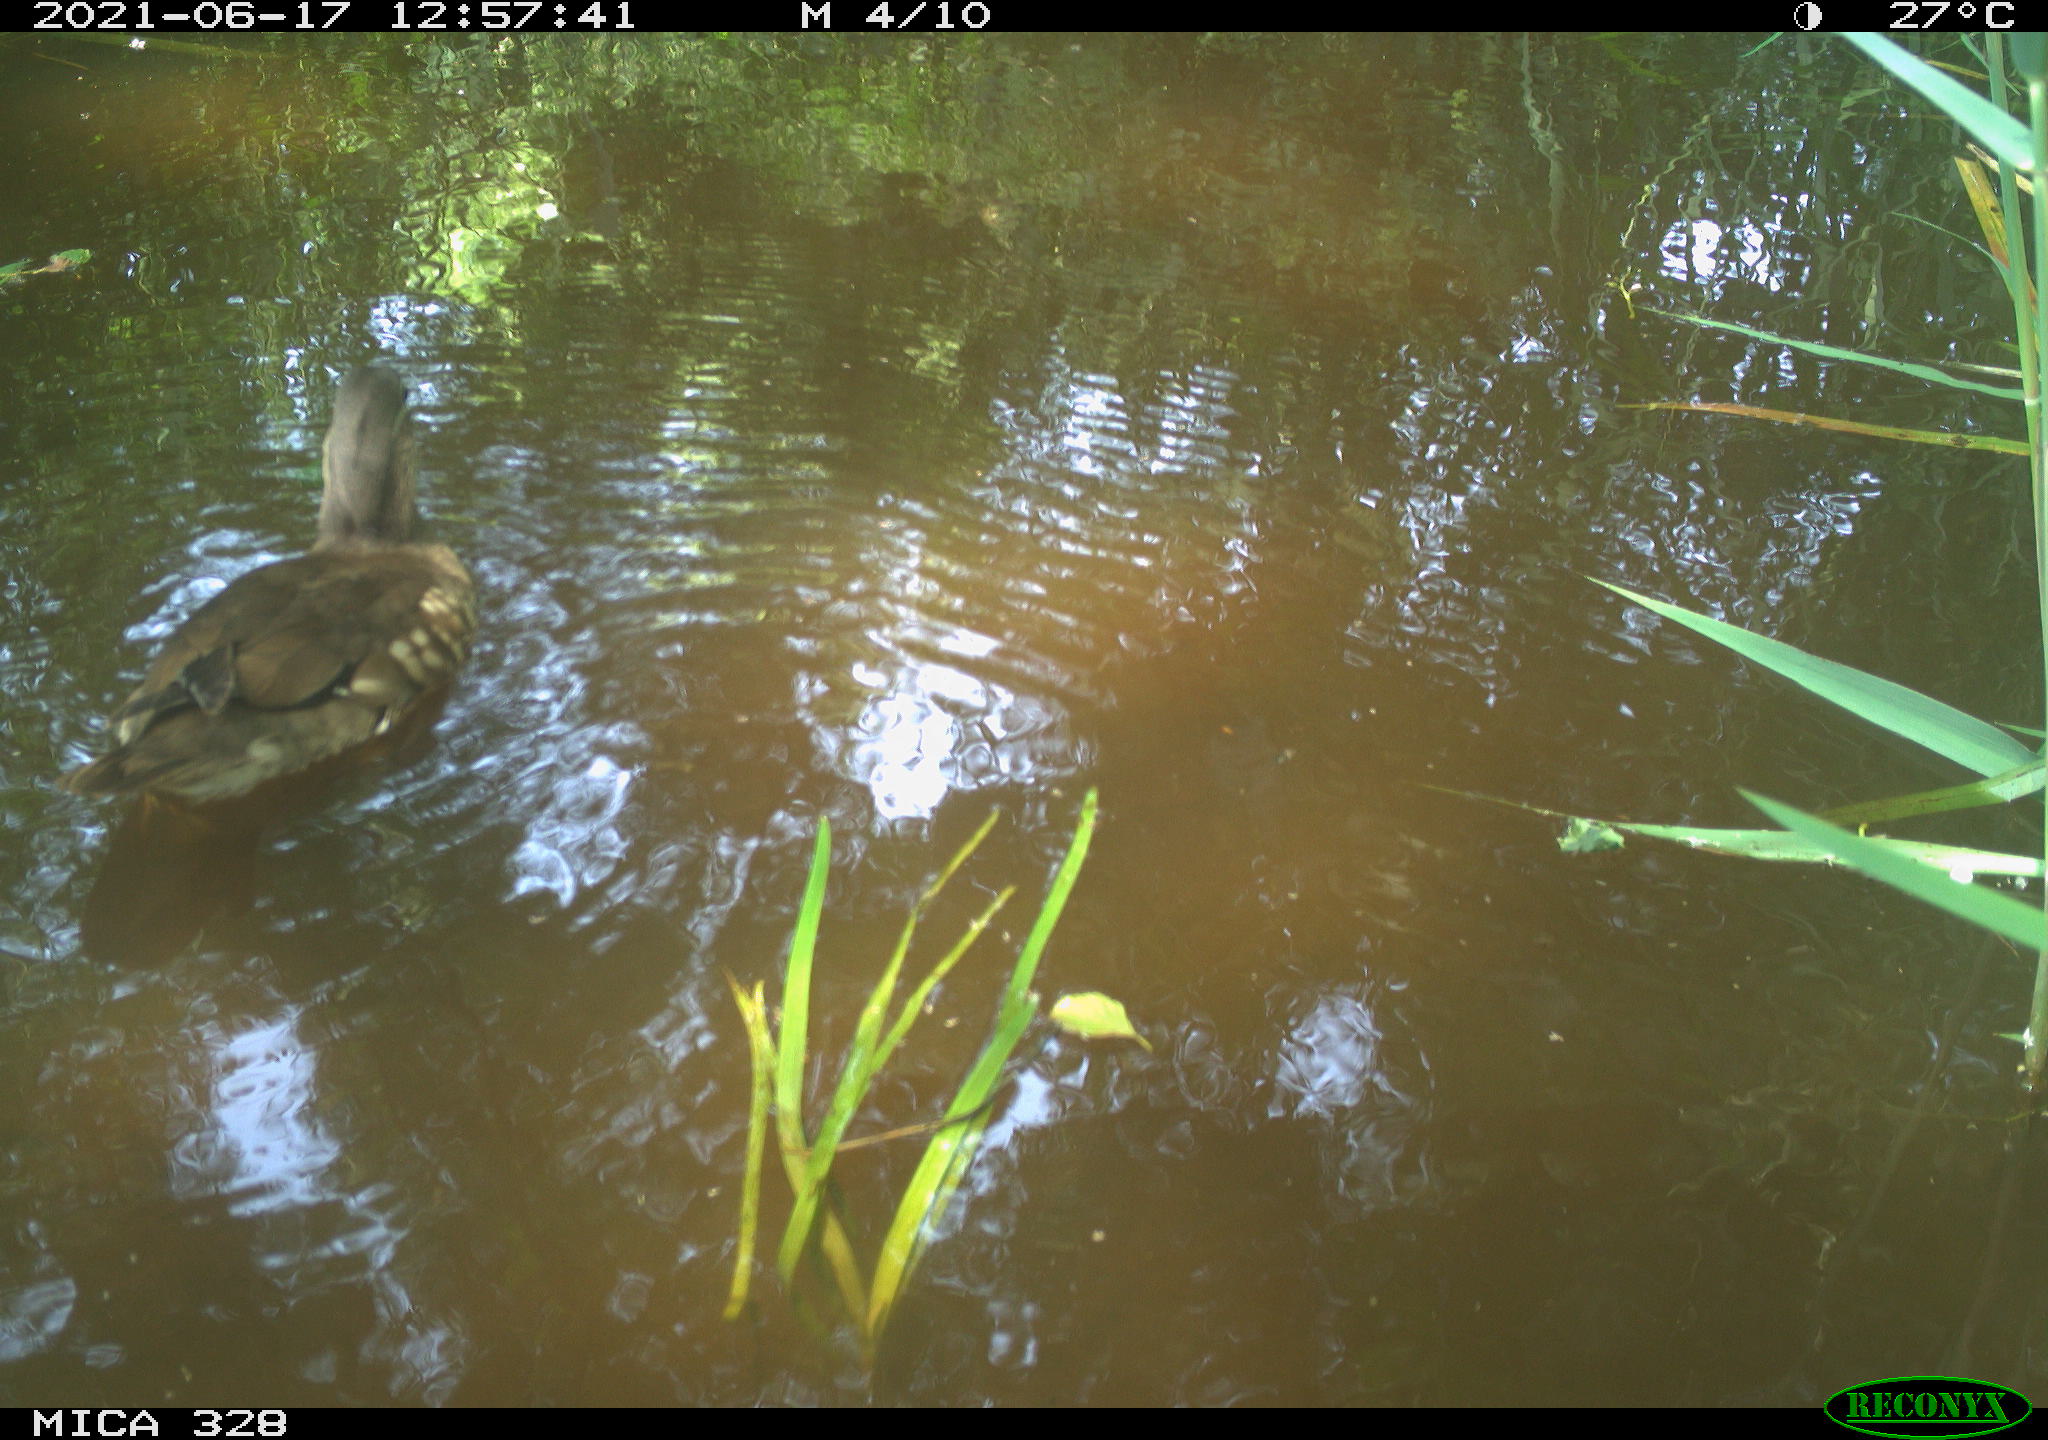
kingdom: Animalia
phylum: Chordata
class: Aves
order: Anseriformes
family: Anatidae
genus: Aix
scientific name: Aix galericulata
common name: Mandarin duck
